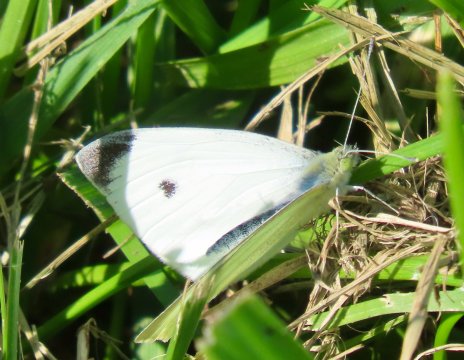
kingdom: Animalia
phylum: Arthropoda
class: Insecta
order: Lepidoptera
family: Pieridae
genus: Pieris
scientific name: Pieris rapae
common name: Cabbage White
